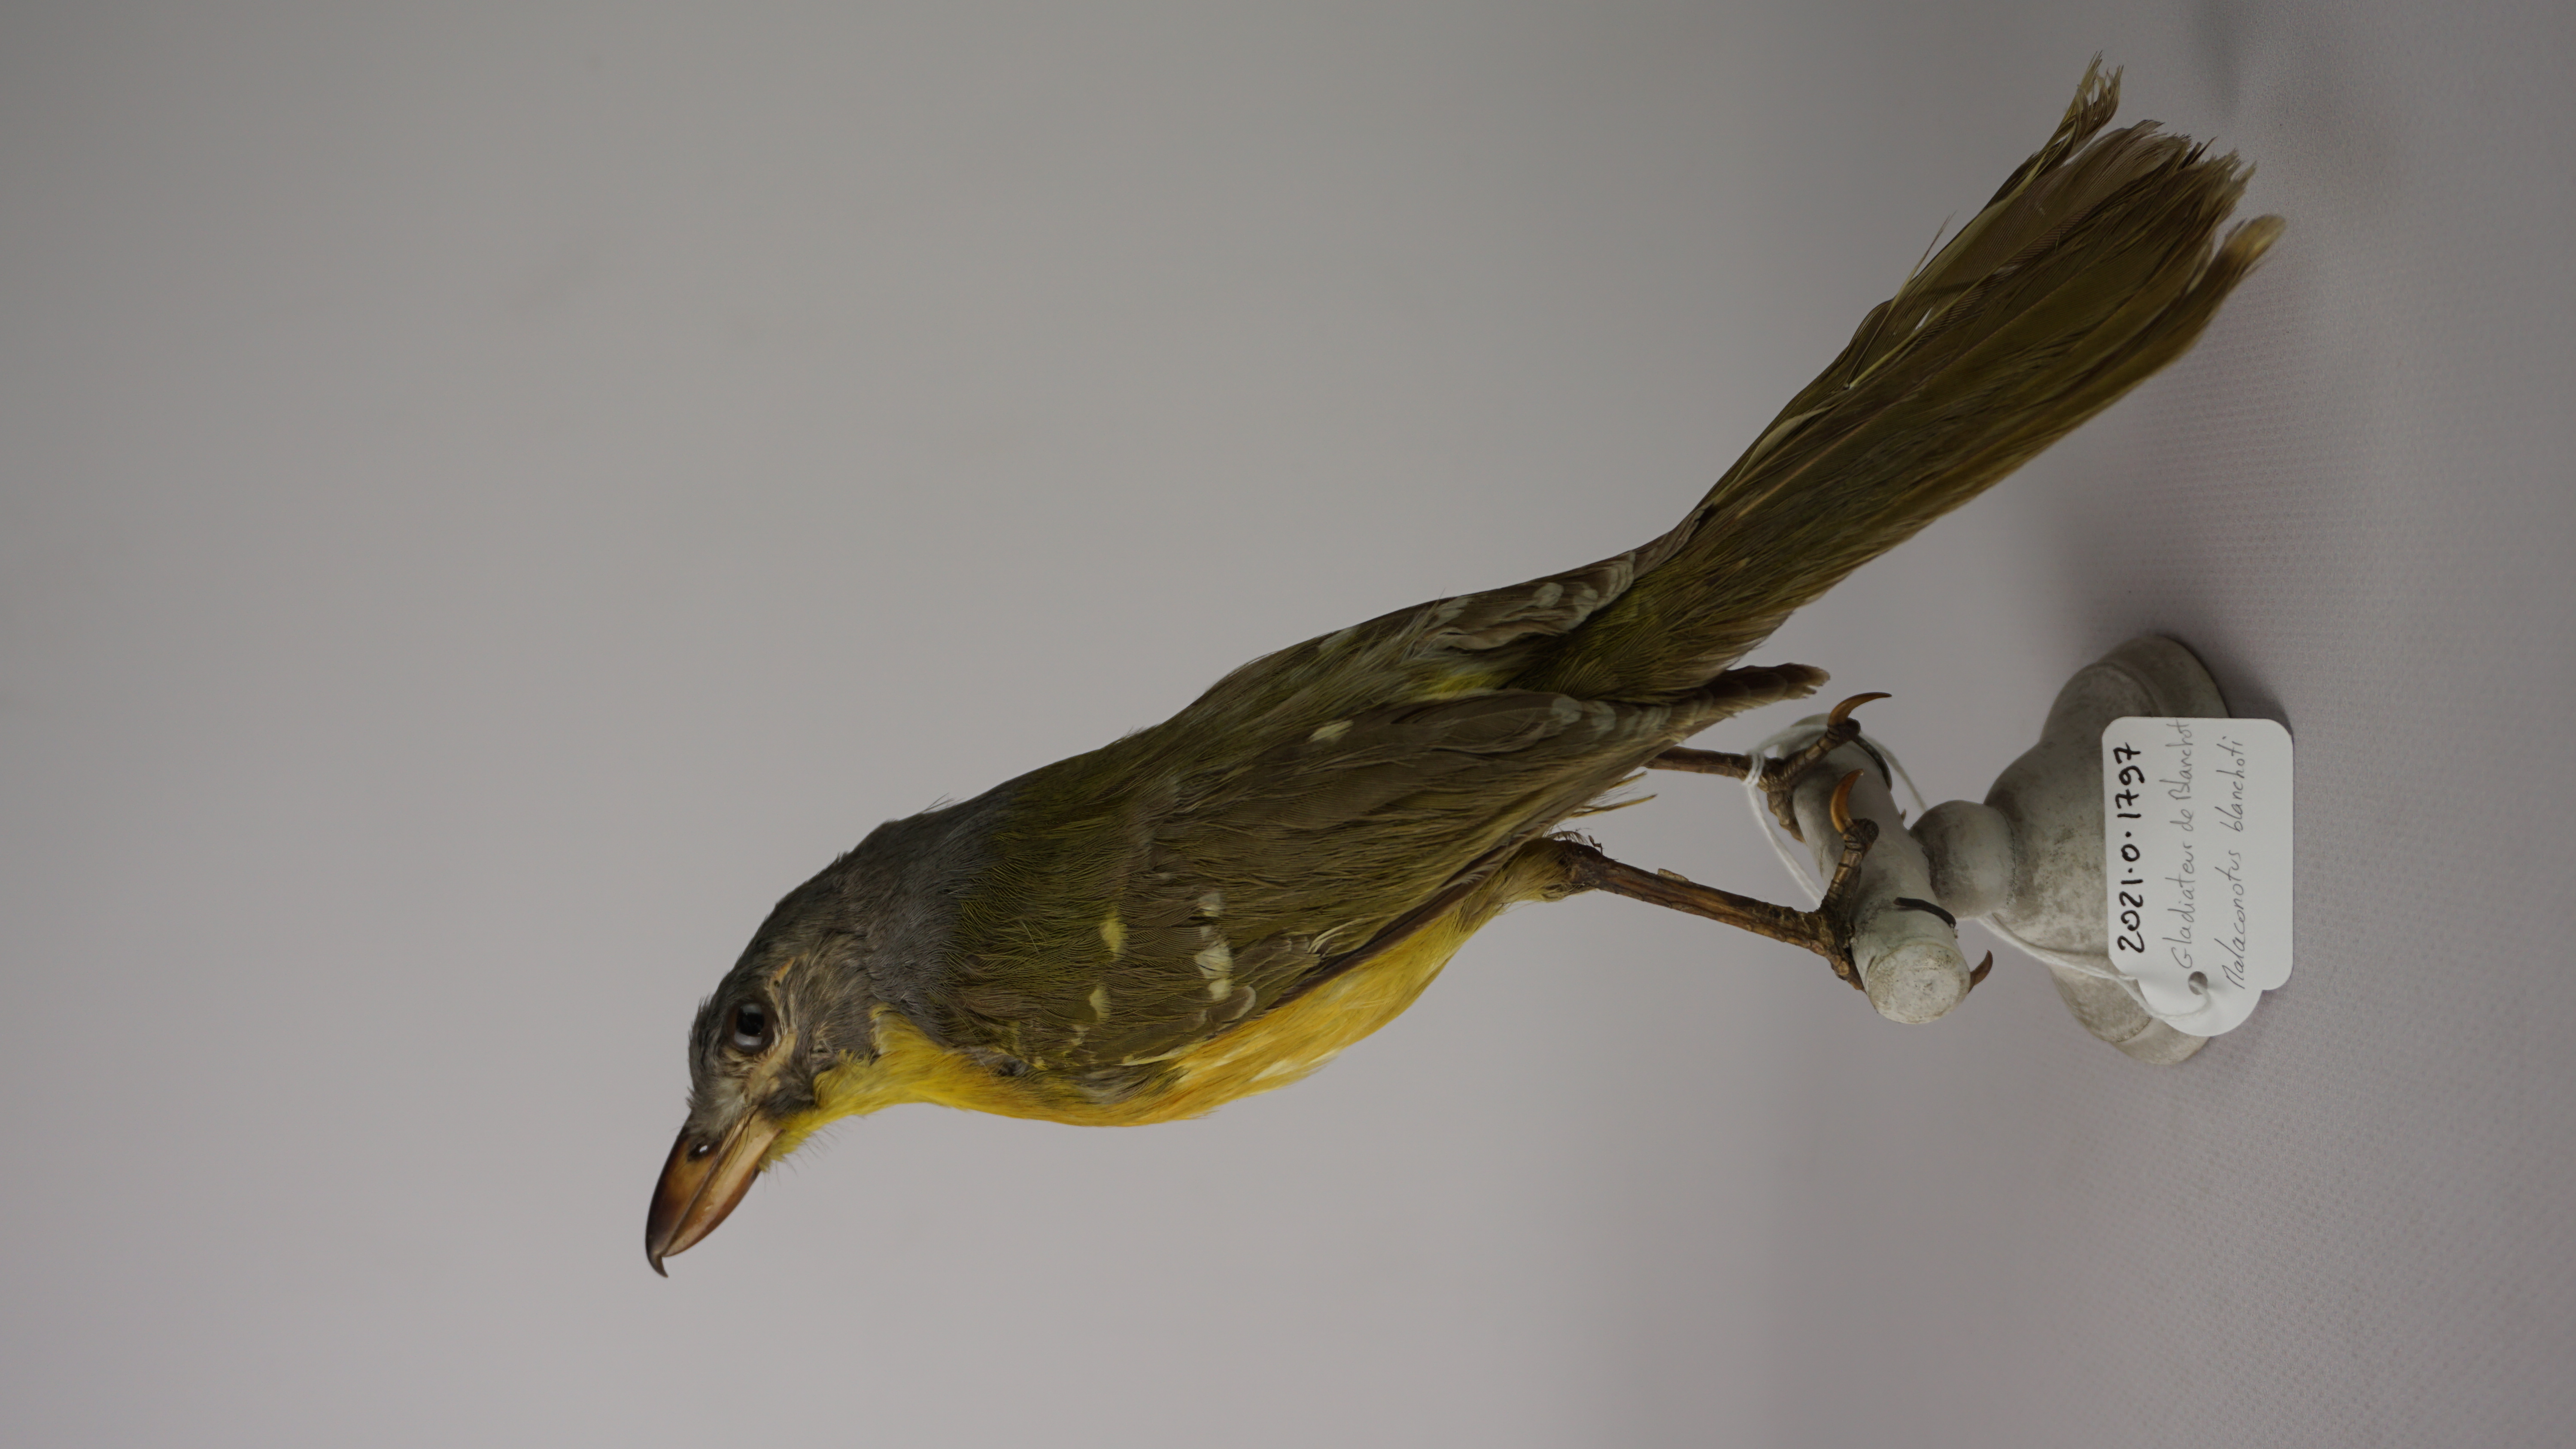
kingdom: Animalia
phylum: Chordata
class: Aves
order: Passeriformes
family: Malaconotidae
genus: Malaconotus
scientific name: Malaconotus blanchoti
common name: Grey-headed bushshrike
